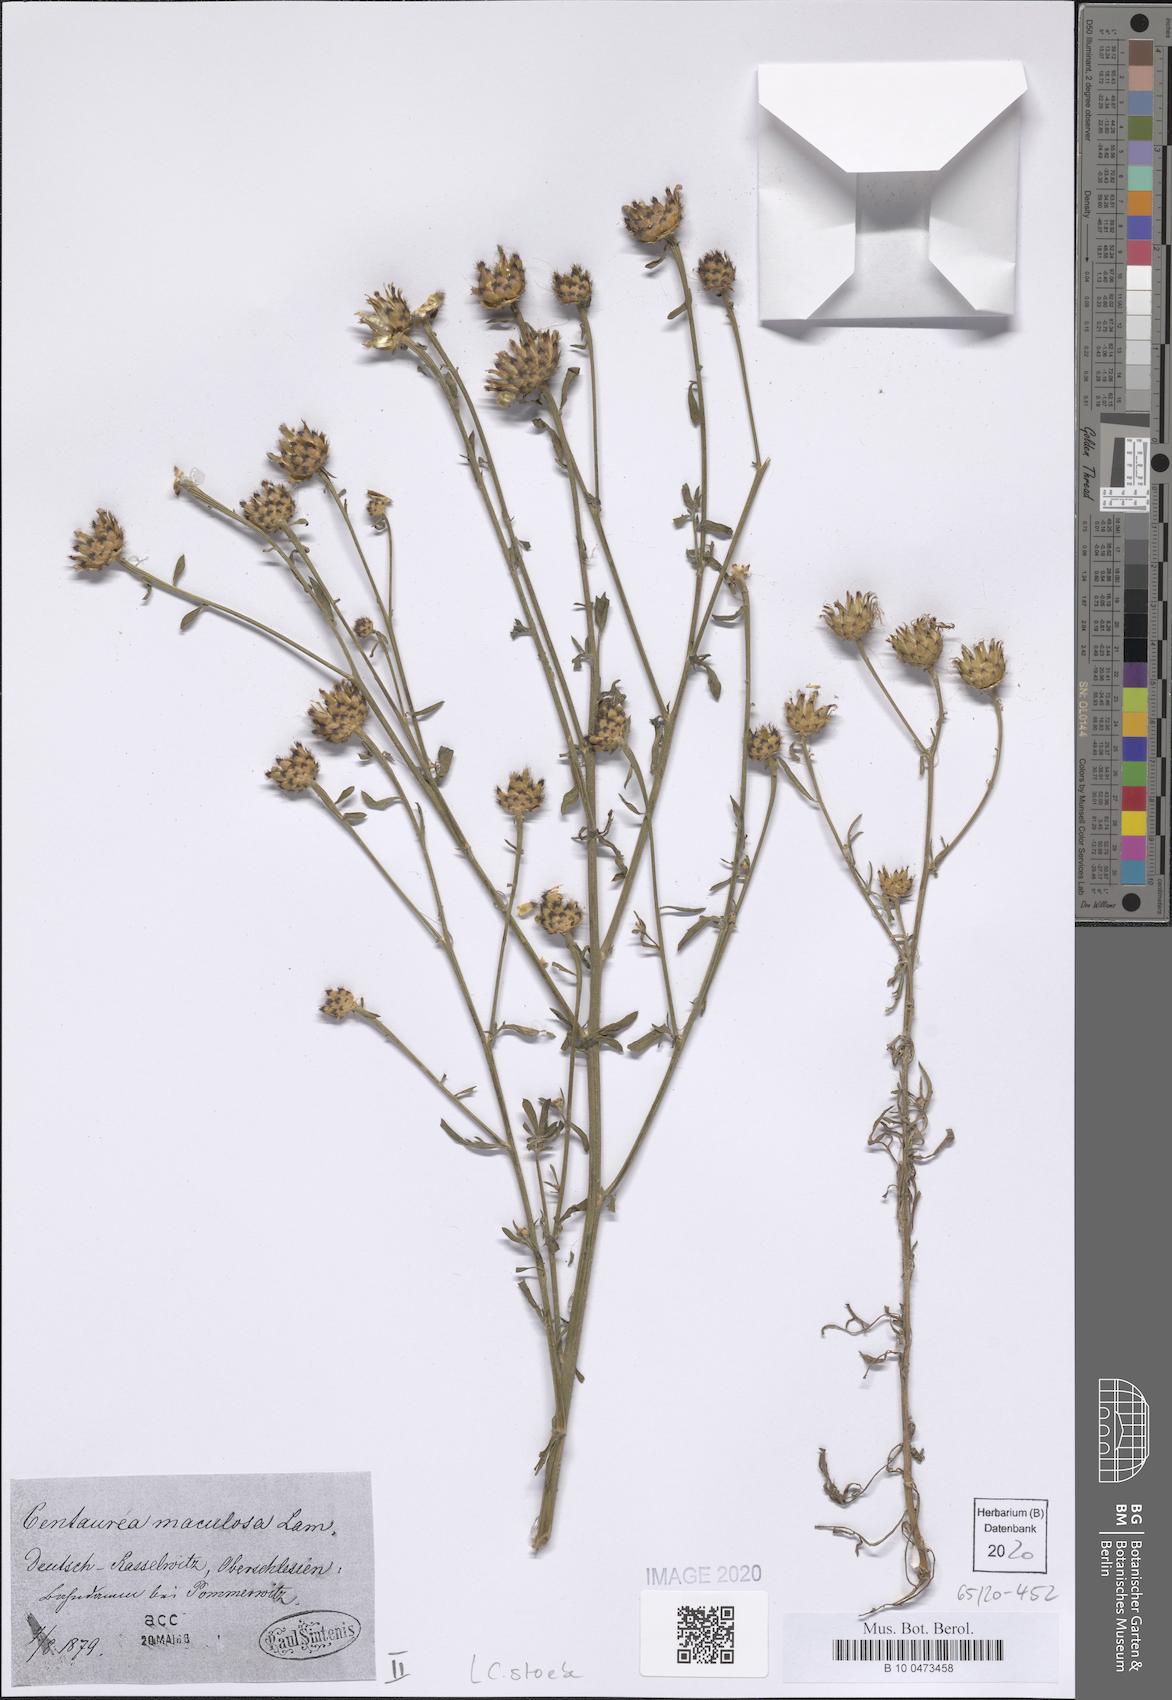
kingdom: Plantae
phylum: Tracheophyta
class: Magnoliopsida
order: Asterales
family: Asteraceae
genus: Centaurea
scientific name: Centaurea stoebe
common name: Spotted knapweed
